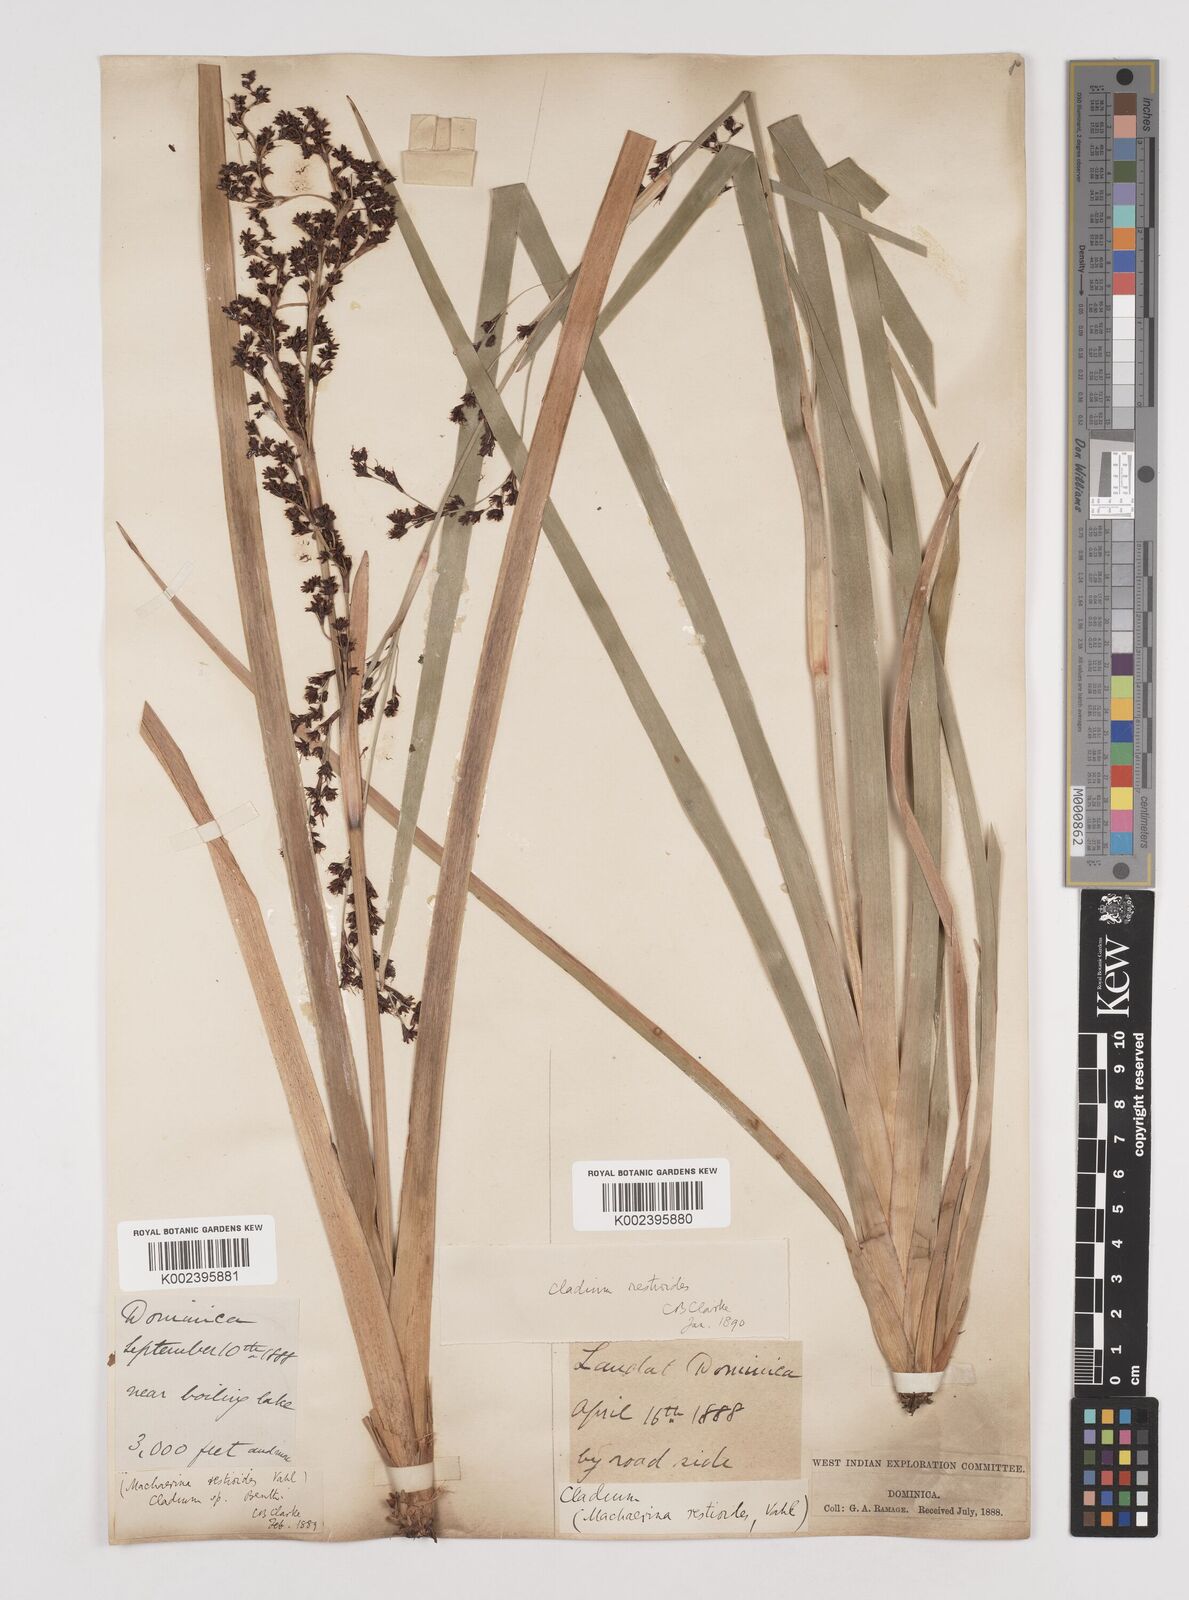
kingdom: Plantae
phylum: Tracheophyta
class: Liliopsida
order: Poales
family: Cyperaceae
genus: Machaerina
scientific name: Machaerina restioides
